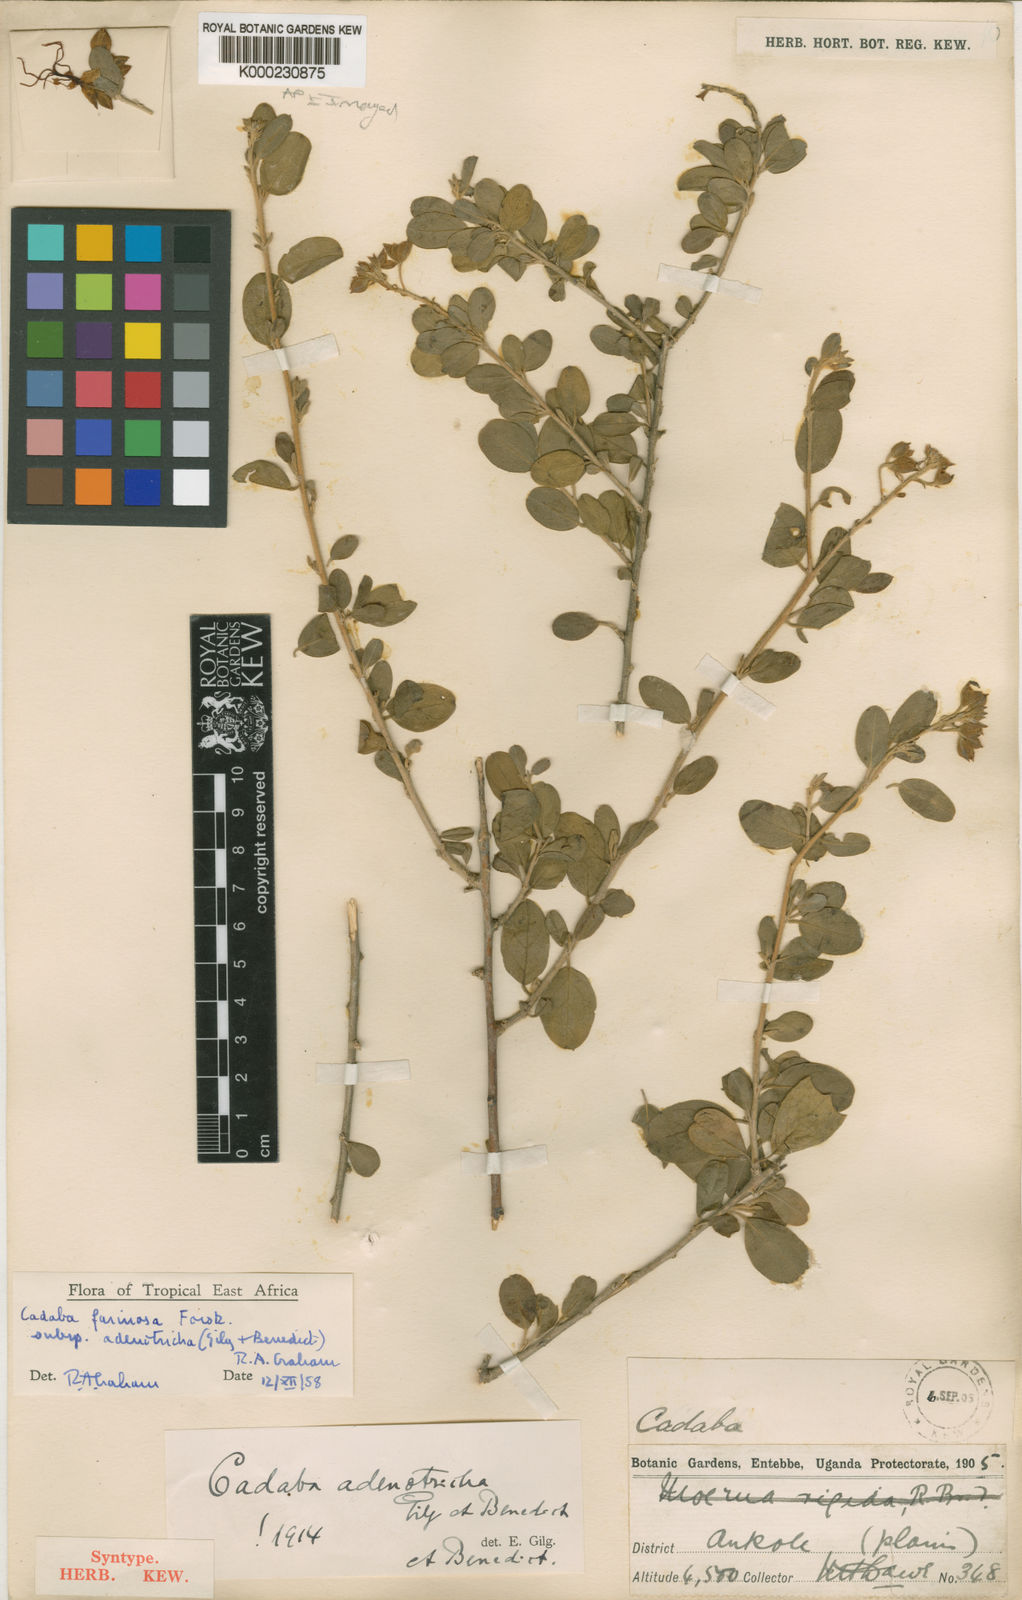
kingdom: Plantae
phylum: Tracheophyta
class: Magnoliopsida
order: Brassicales
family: Capparaceae
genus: Cadaba
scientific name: Cadaba farinosa
